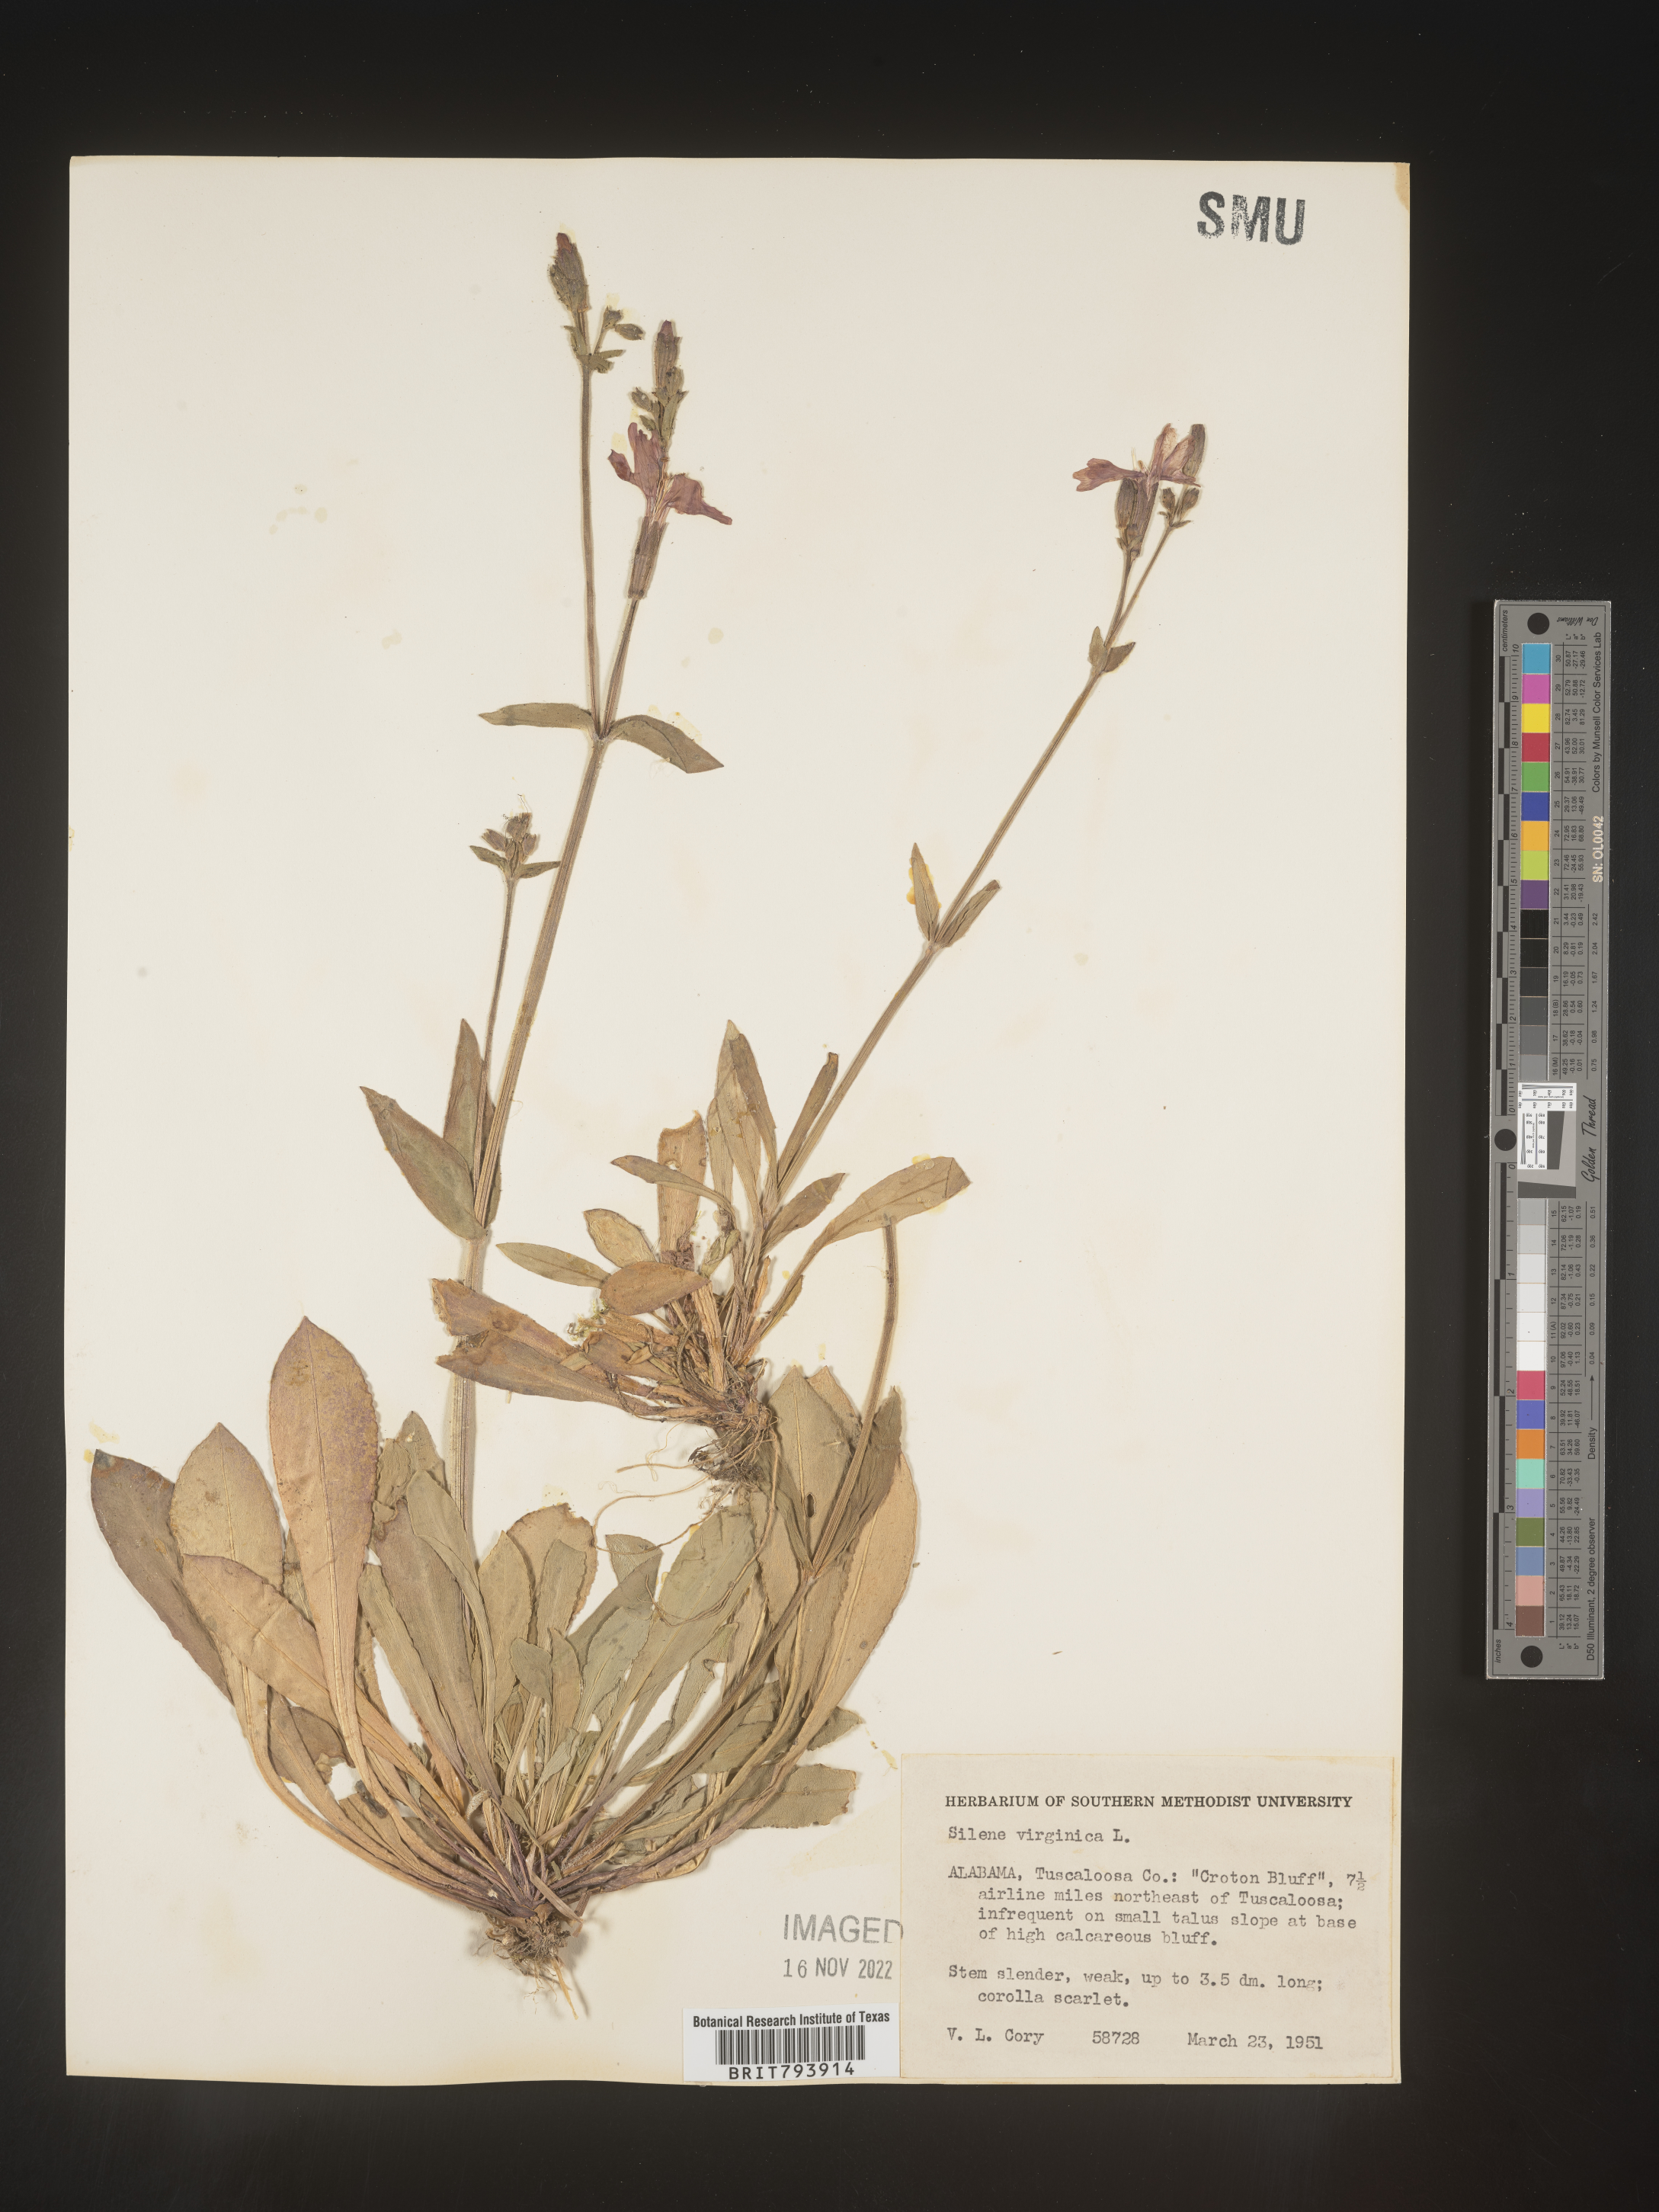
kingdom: Plantae
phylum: Tracheophyta
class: Magnoliopsida
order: Caryophyllales
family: Caryophyllaceae
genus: Silene
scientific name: Silene virginica
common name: Fire-pink
